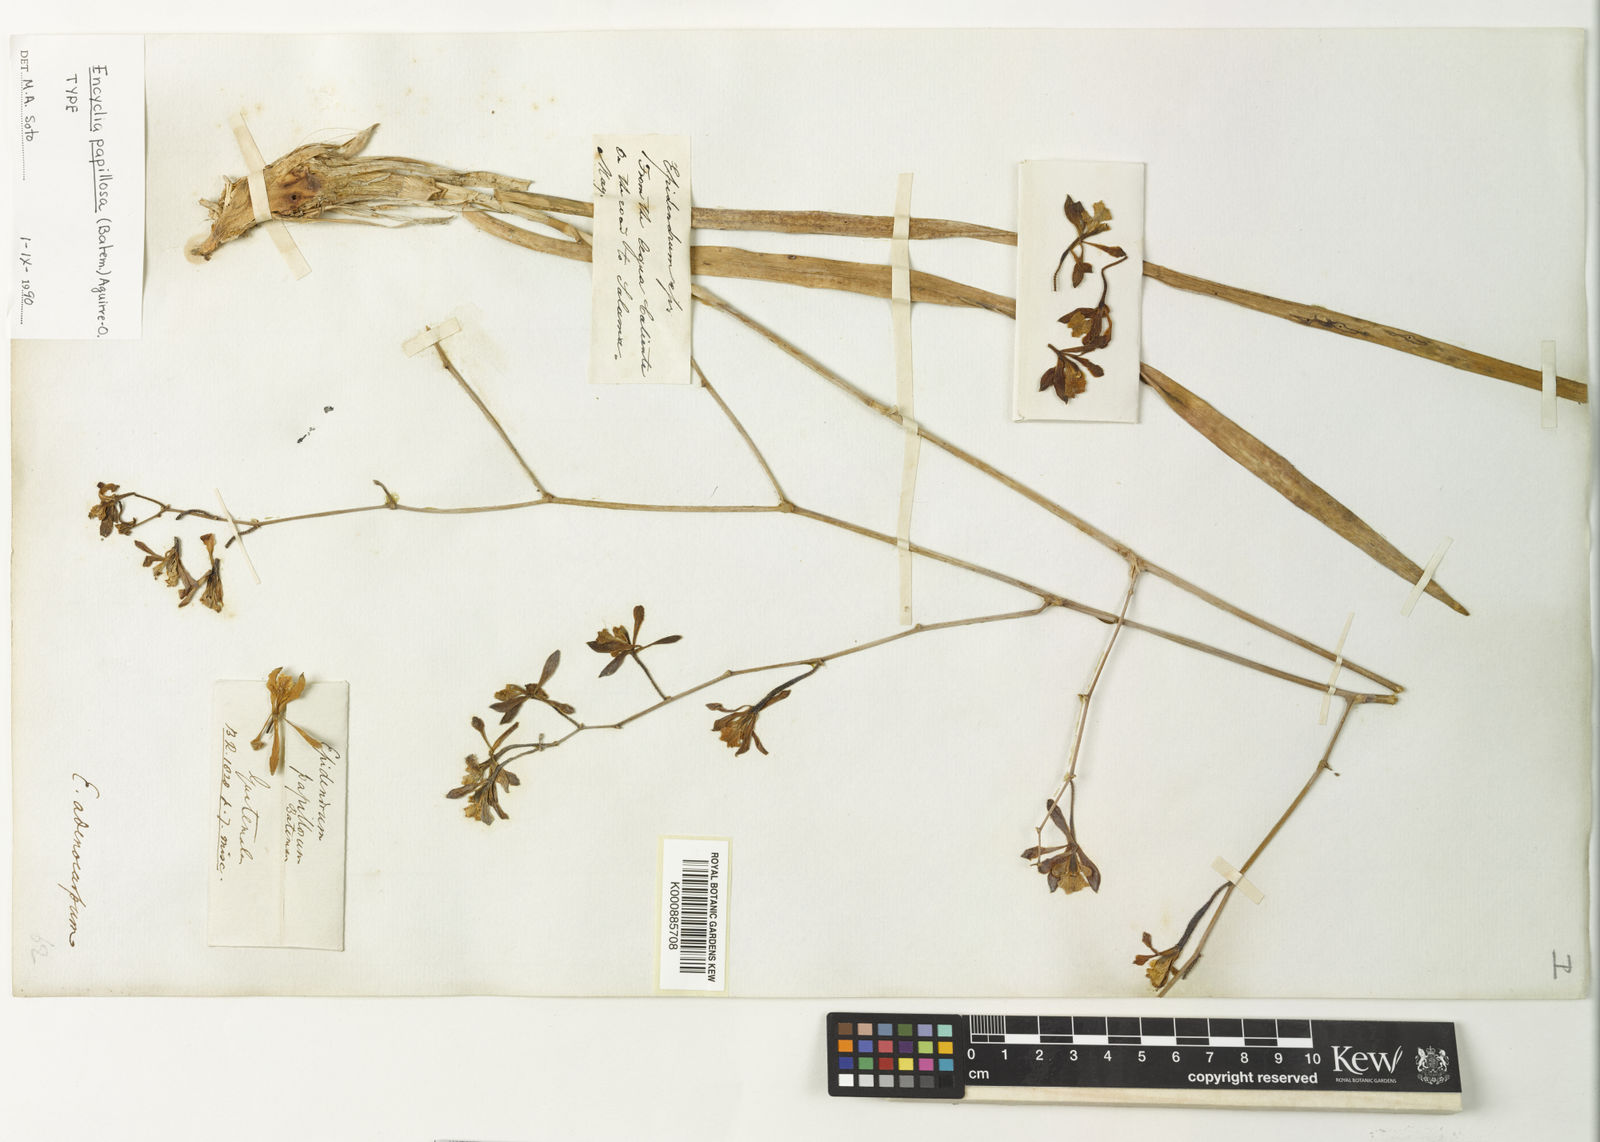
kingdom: Plantae
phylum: Tracheophyta
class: Liliopsida
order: Asparagales
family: Orchidaceae
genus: Encyclia
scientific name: Encyclia papillosa
